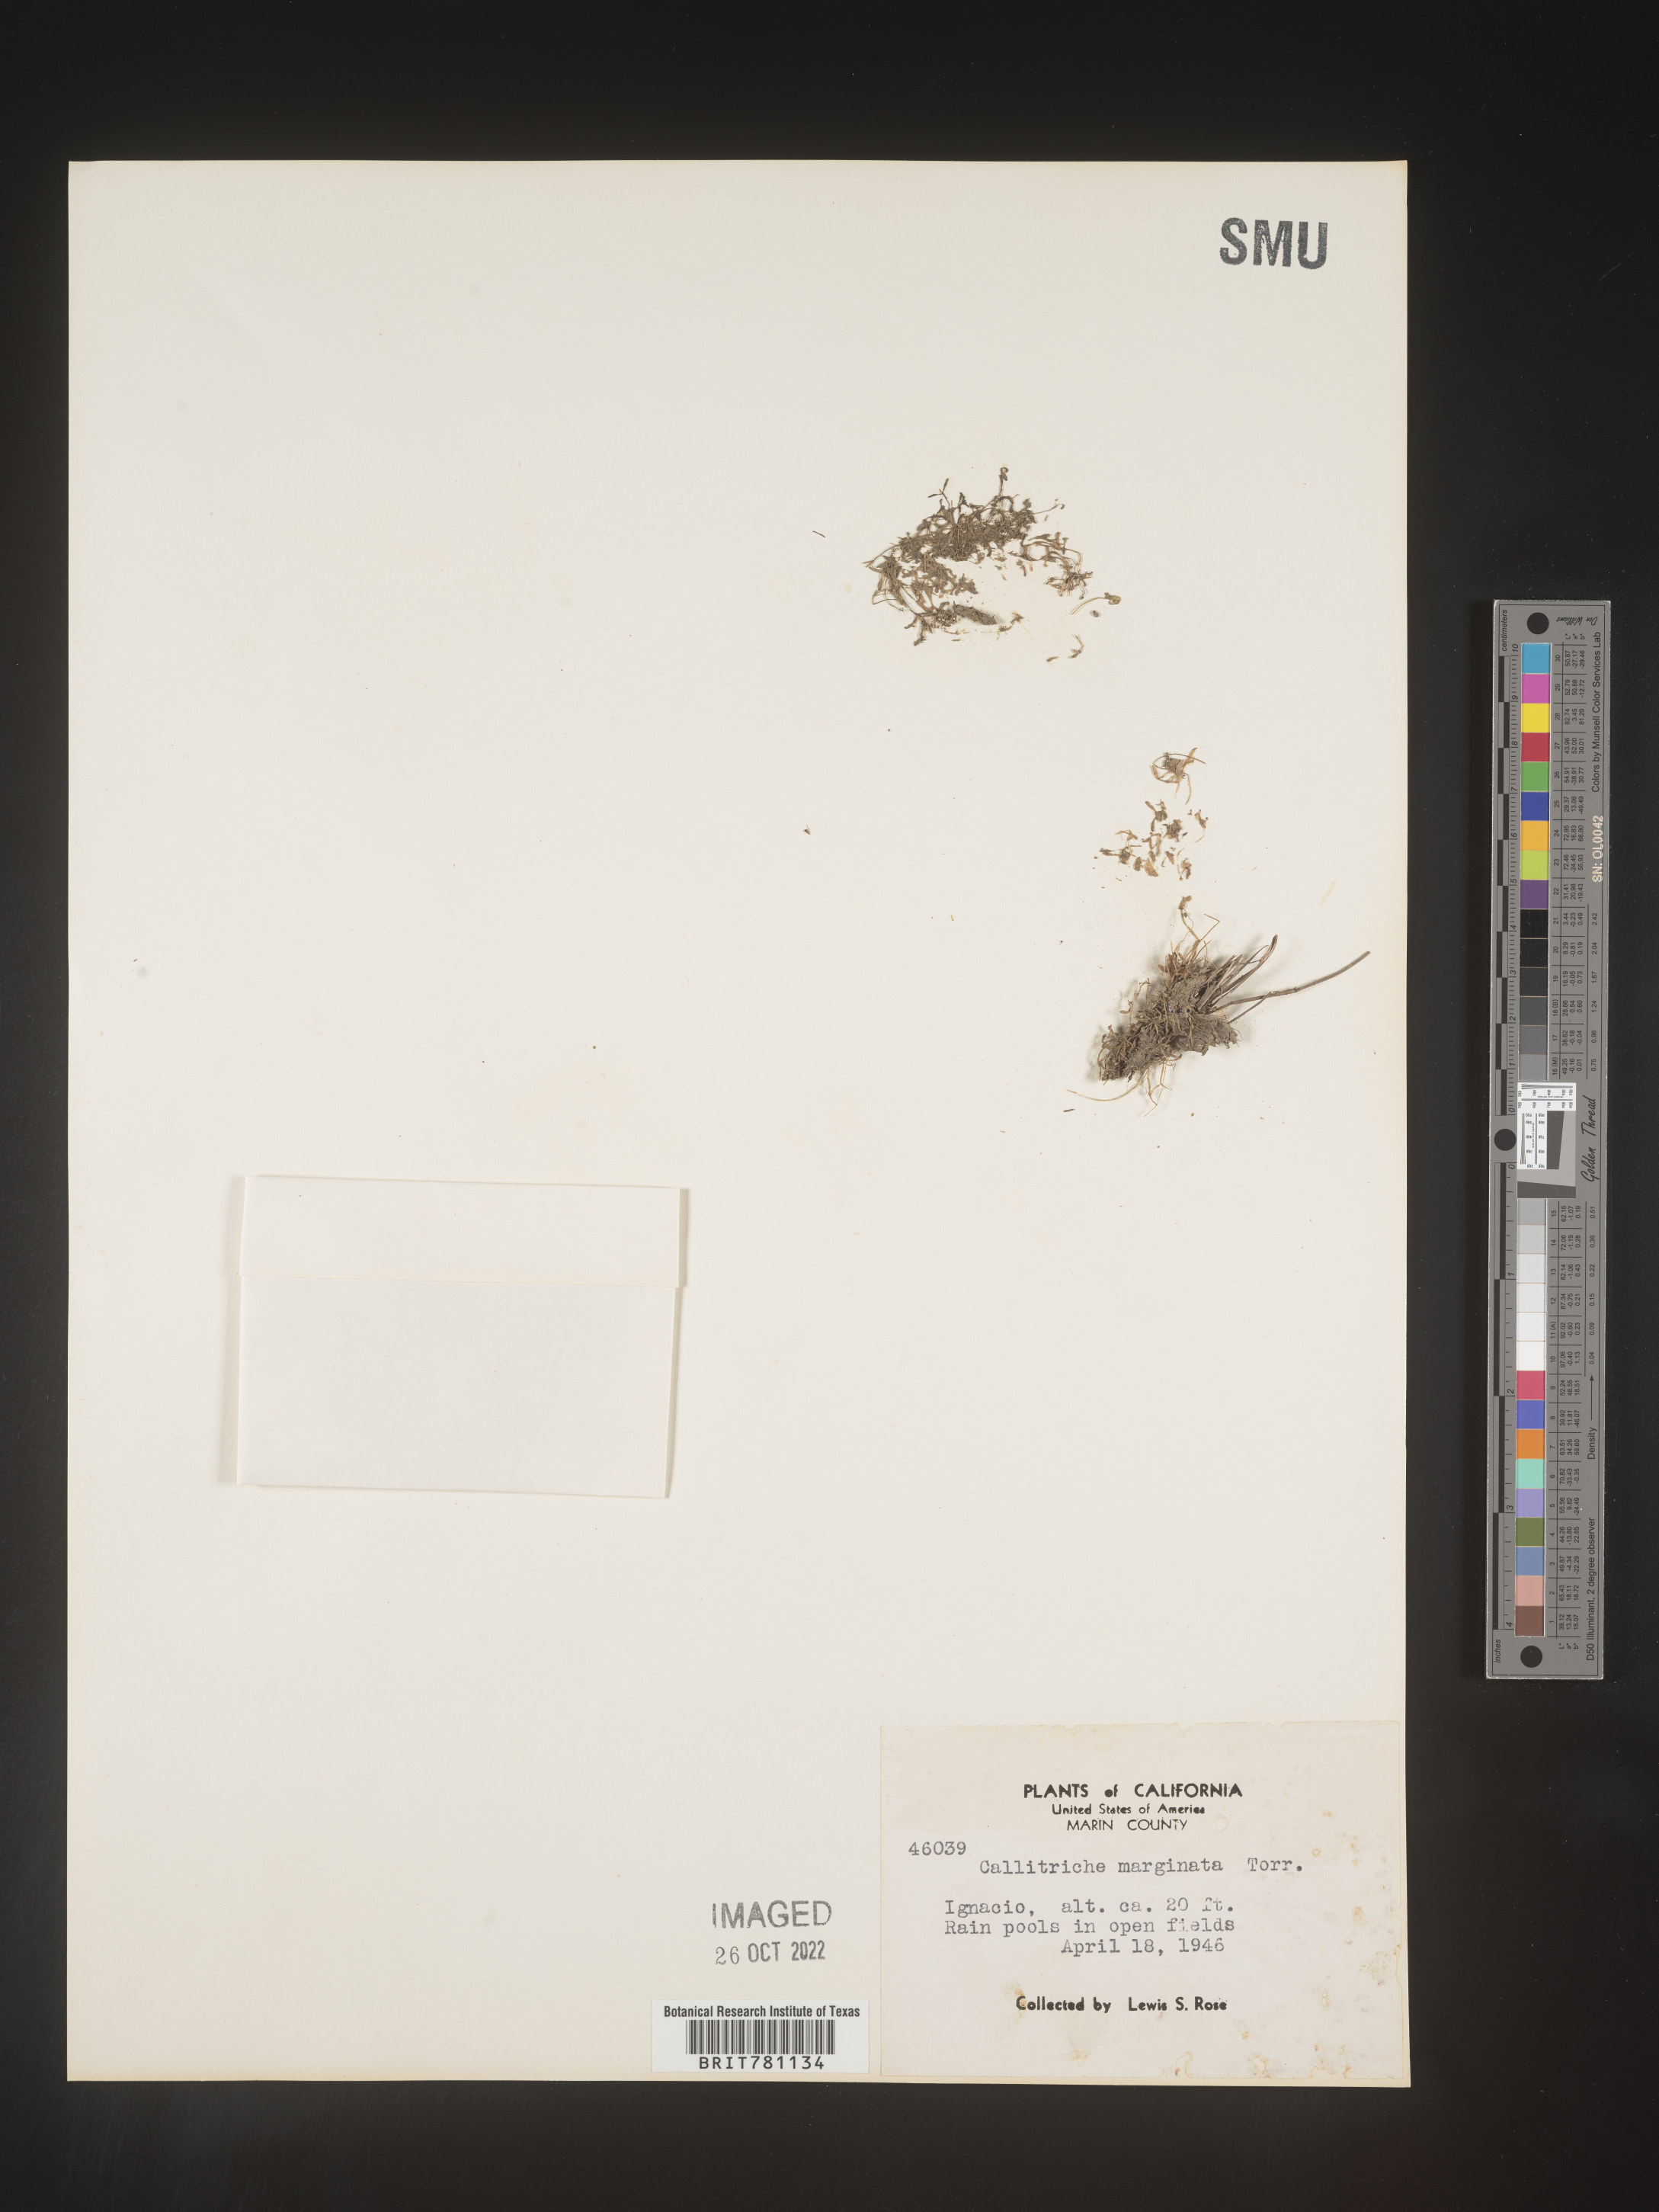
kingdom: Plantae
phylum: Tracheophyta
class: Magnoliopsida
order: Lamiales
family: Plantaginaceae
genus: Callitriche
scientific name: Callitriche
